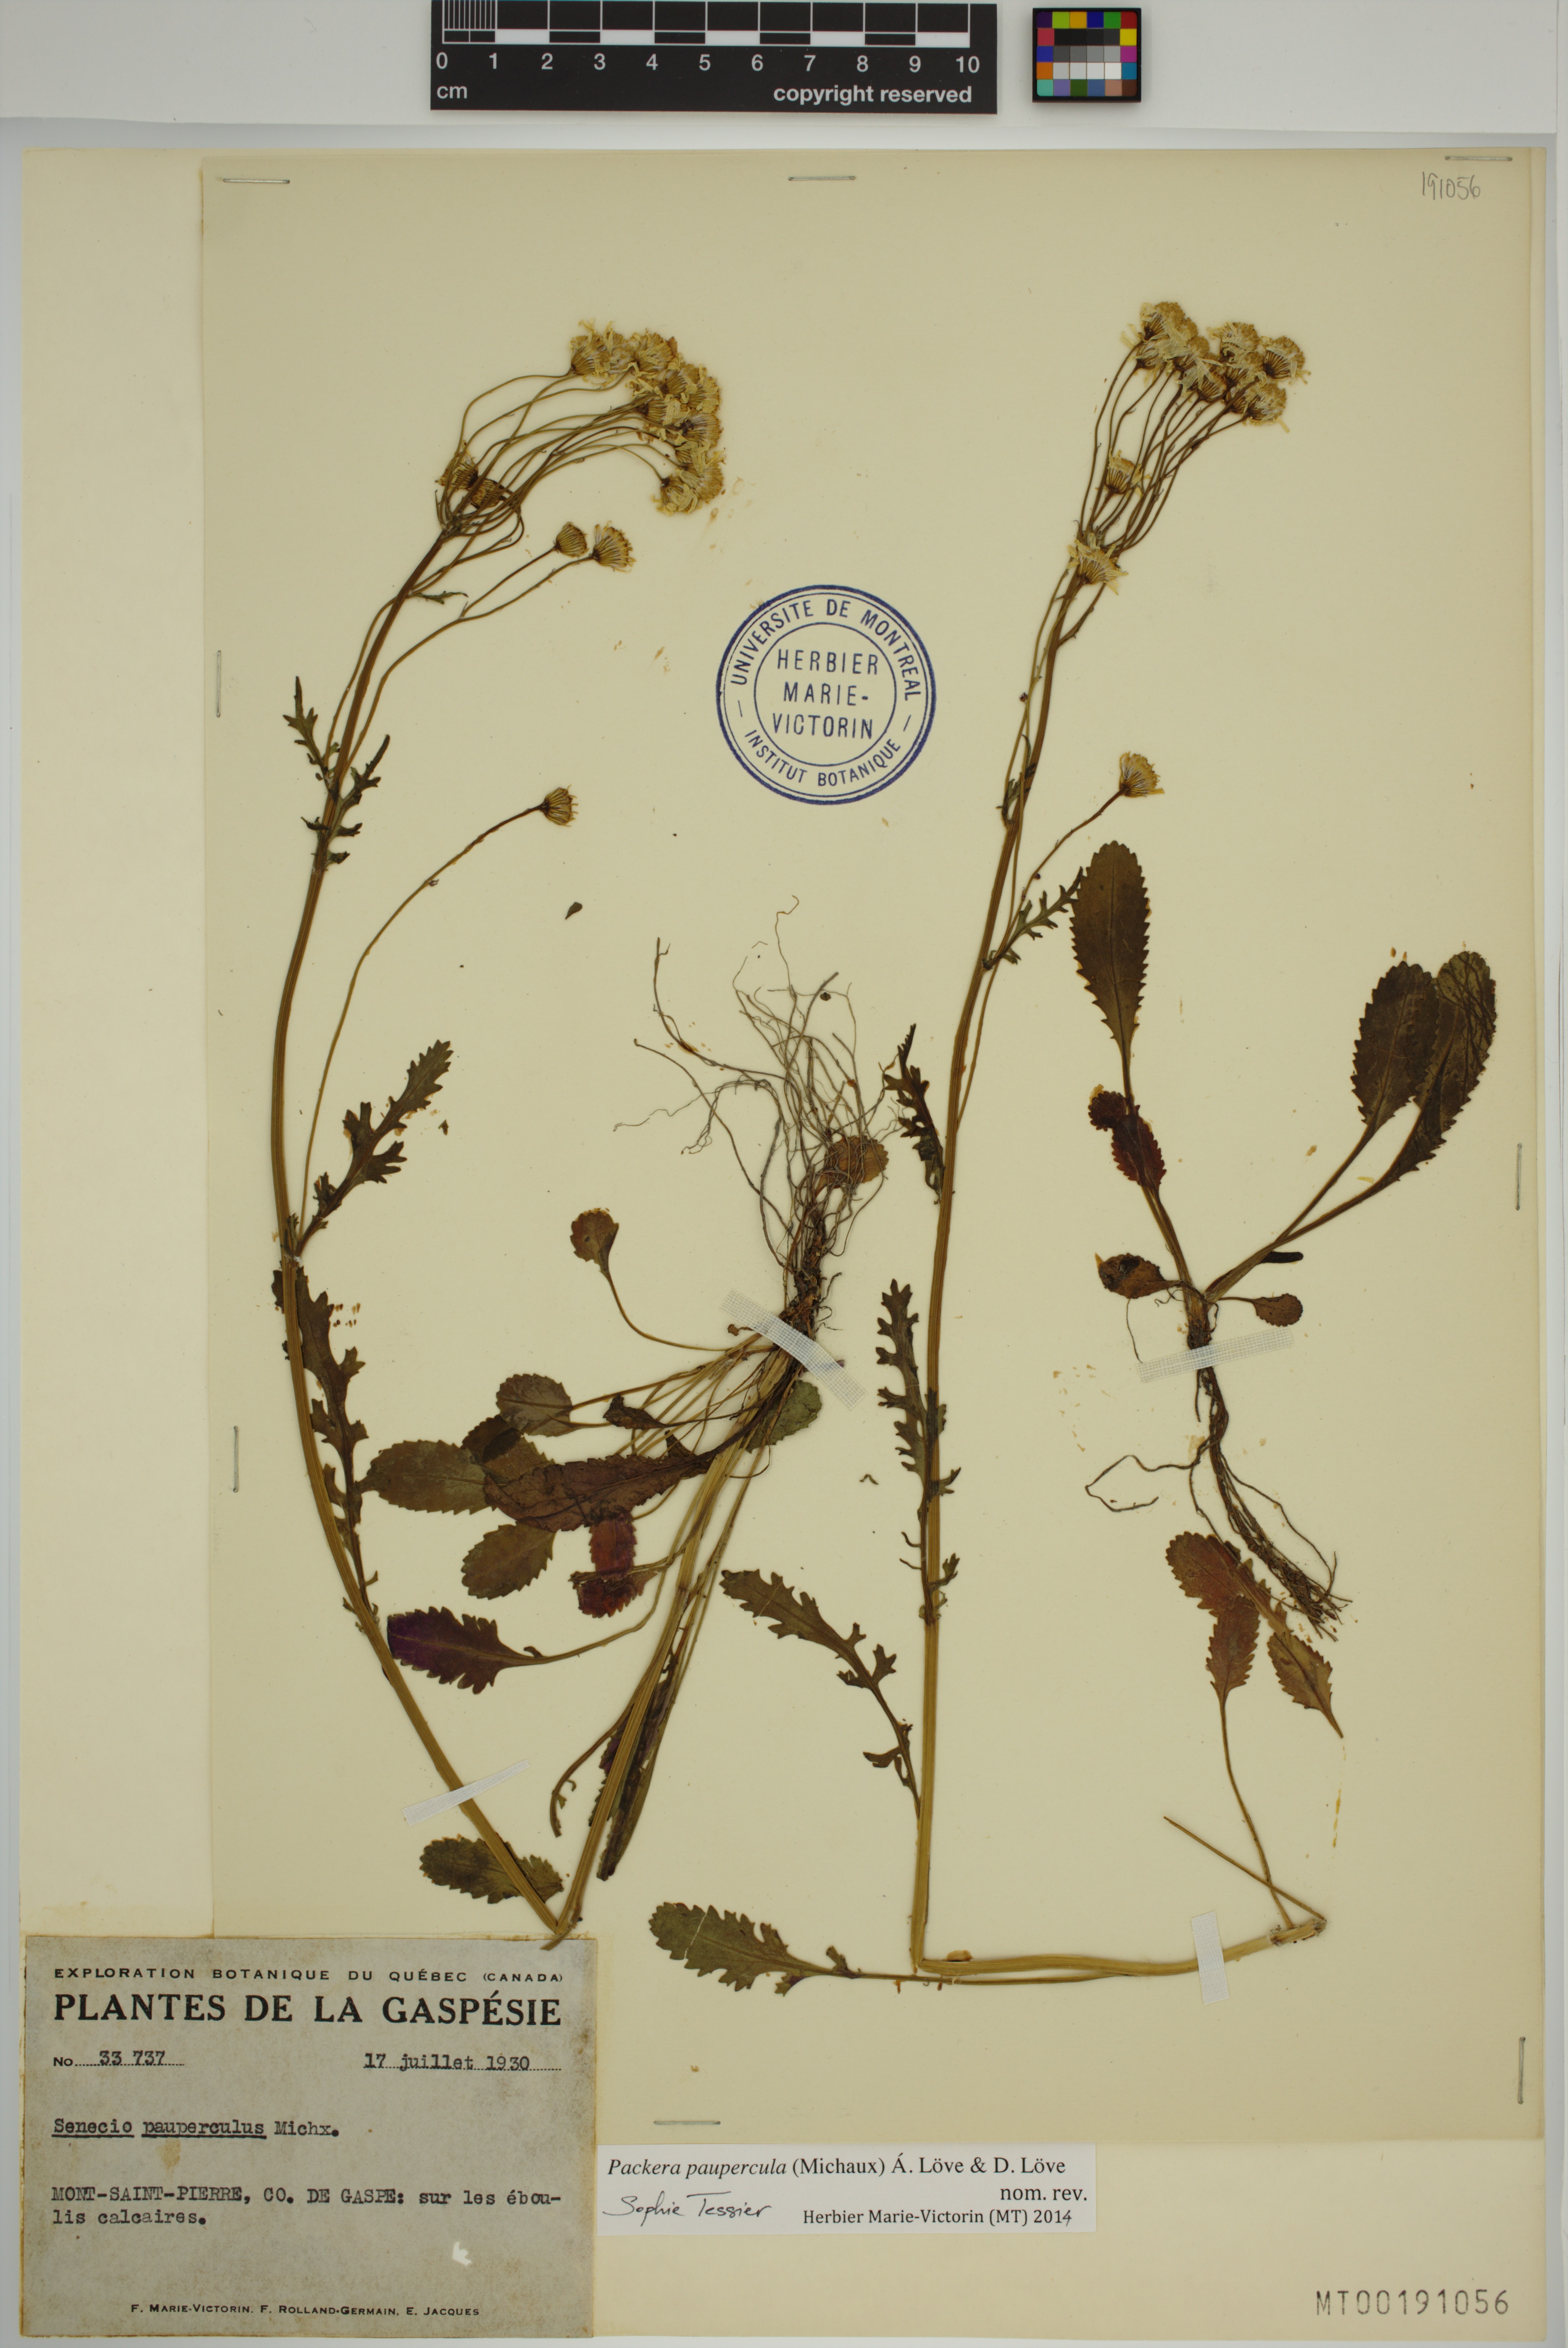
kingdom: Plantae
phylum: Tracheophyta
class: Magnoliopsida
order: Asterales
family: Asteraceae
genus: Packera
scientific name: Packera paupercula
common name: Balsam groundsel
